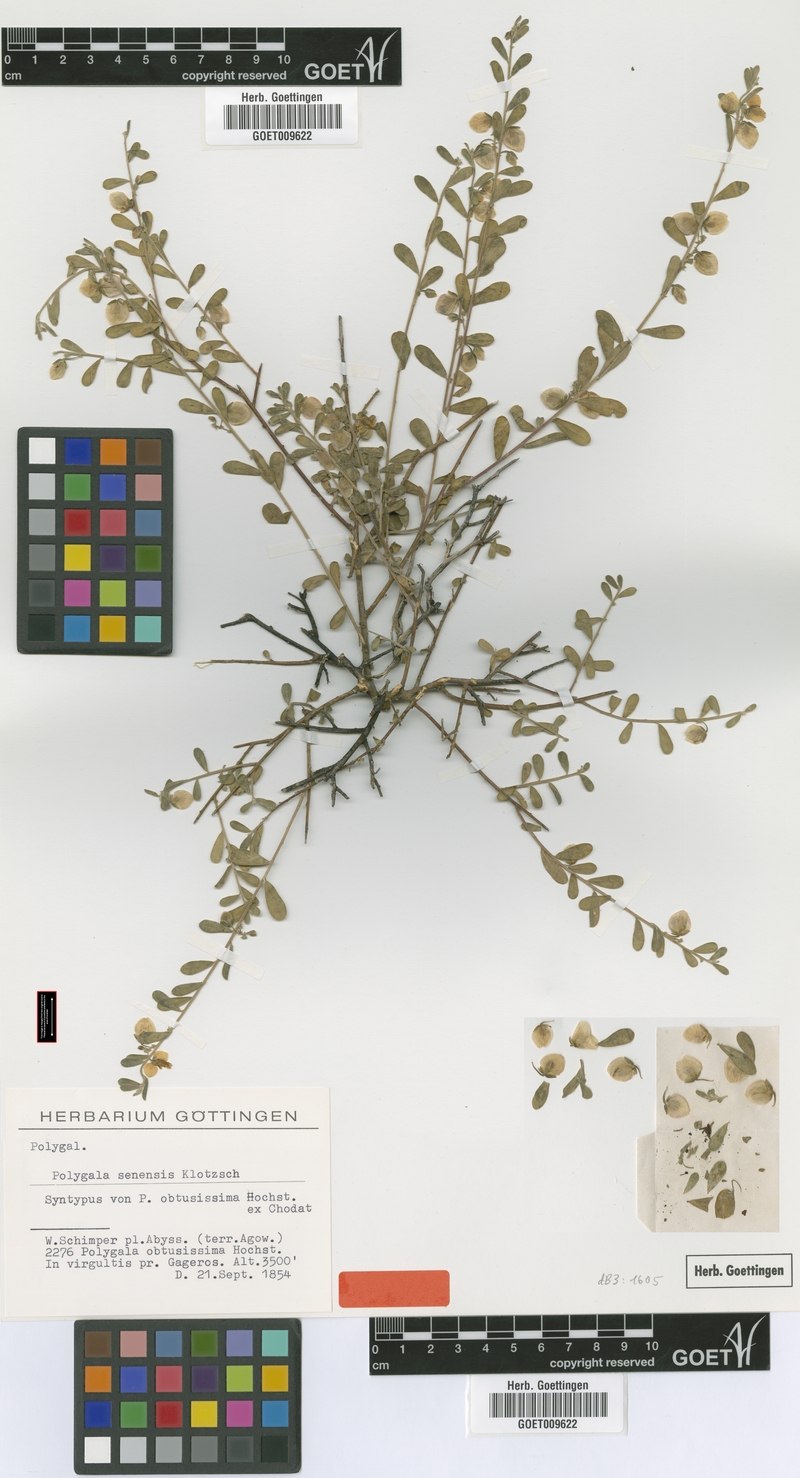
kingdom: Plantae
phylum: Tracheophyta
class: Magnoliopsida
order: Fabales
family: Polygalaceae
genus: Polygala
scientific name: Polygala senensis
